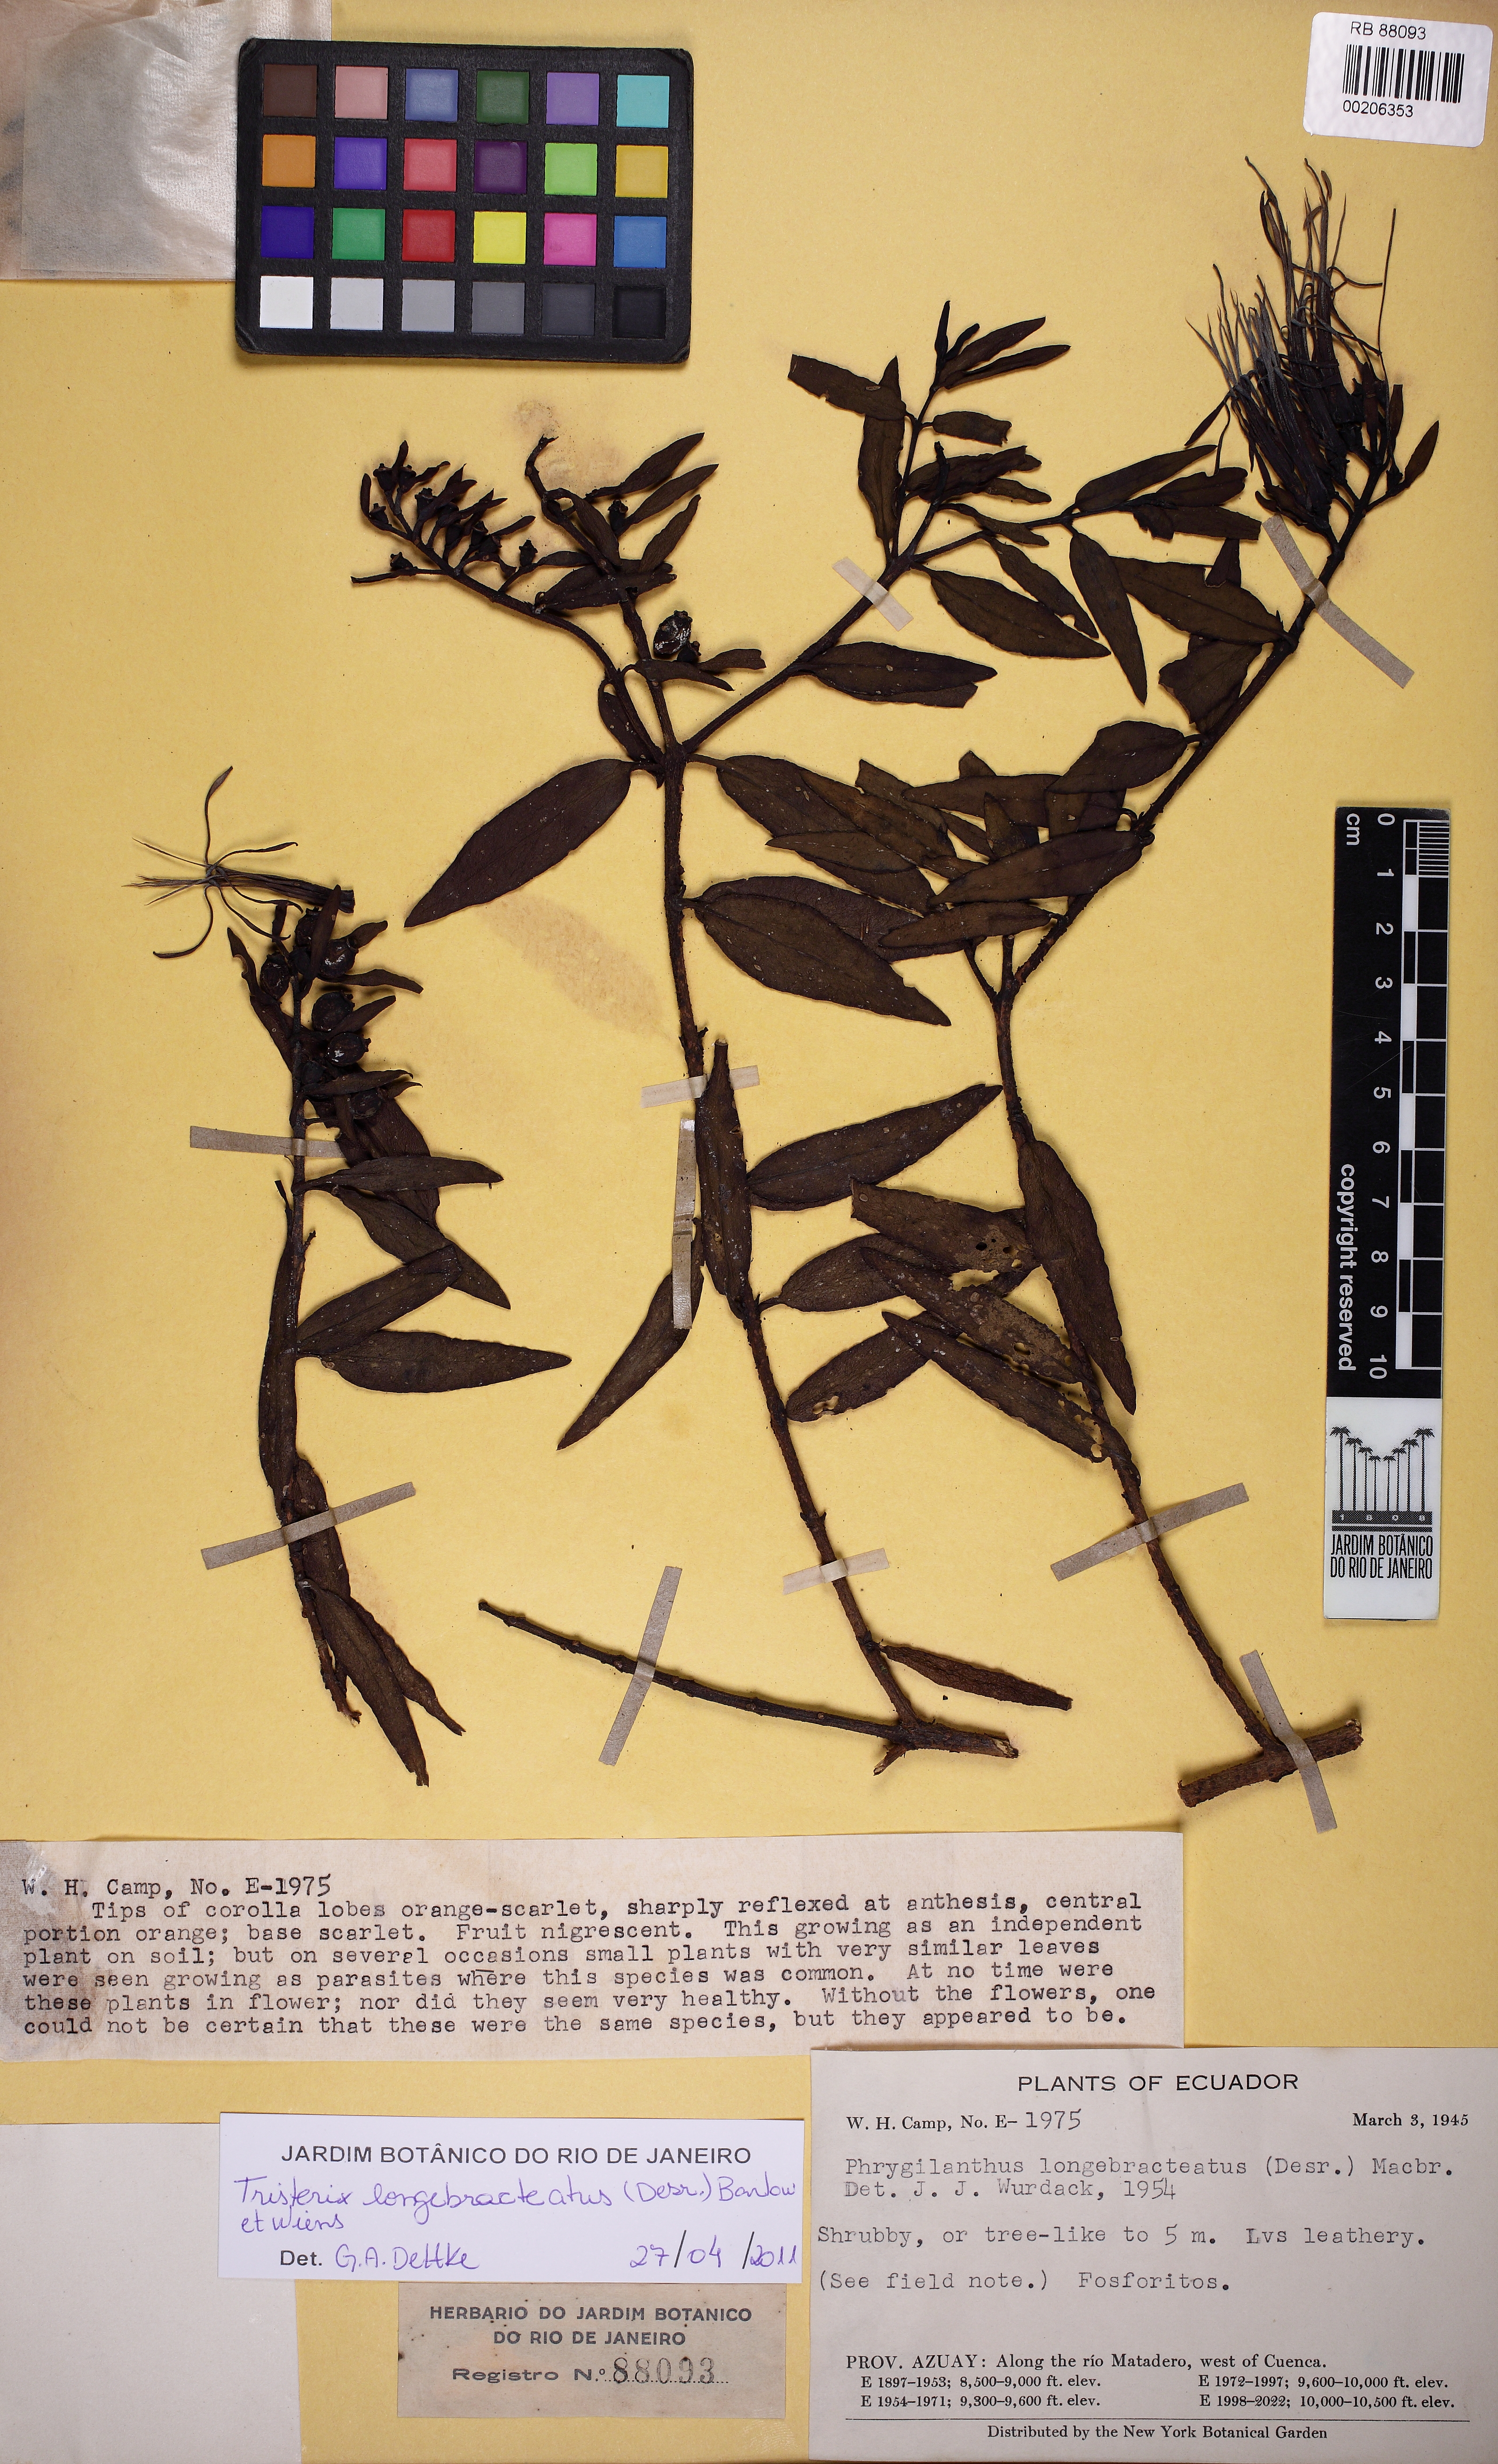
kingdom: Plantae
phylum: Tracheophyta
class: Magnoliopsida
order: Santalales
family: Loranthaceae
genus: Tristerix
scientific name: Tristerix longebracteatus
